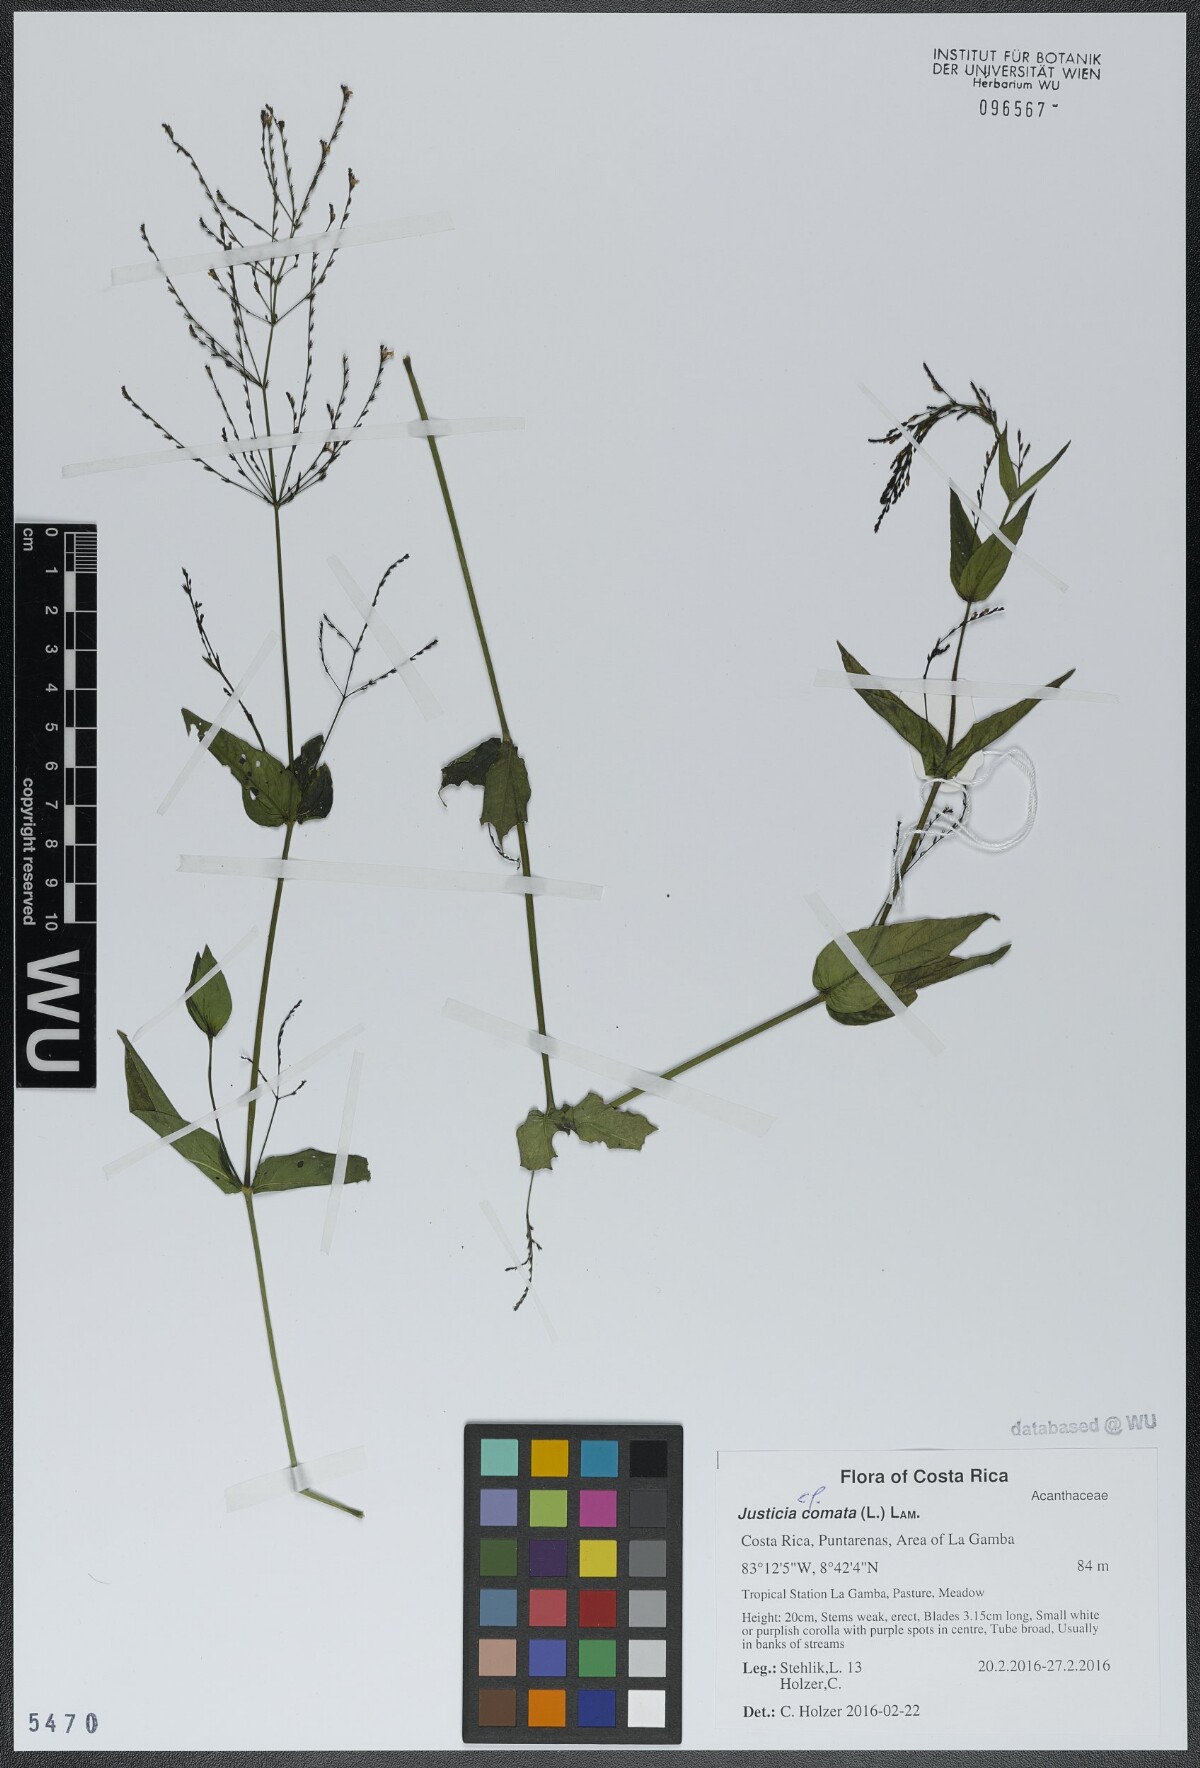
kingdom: Plantae
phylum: Tracheophyta
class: Magnoliopsida
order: Lamiales
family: Acanthaceae
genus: Dianthera
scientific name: Dianthera comata
